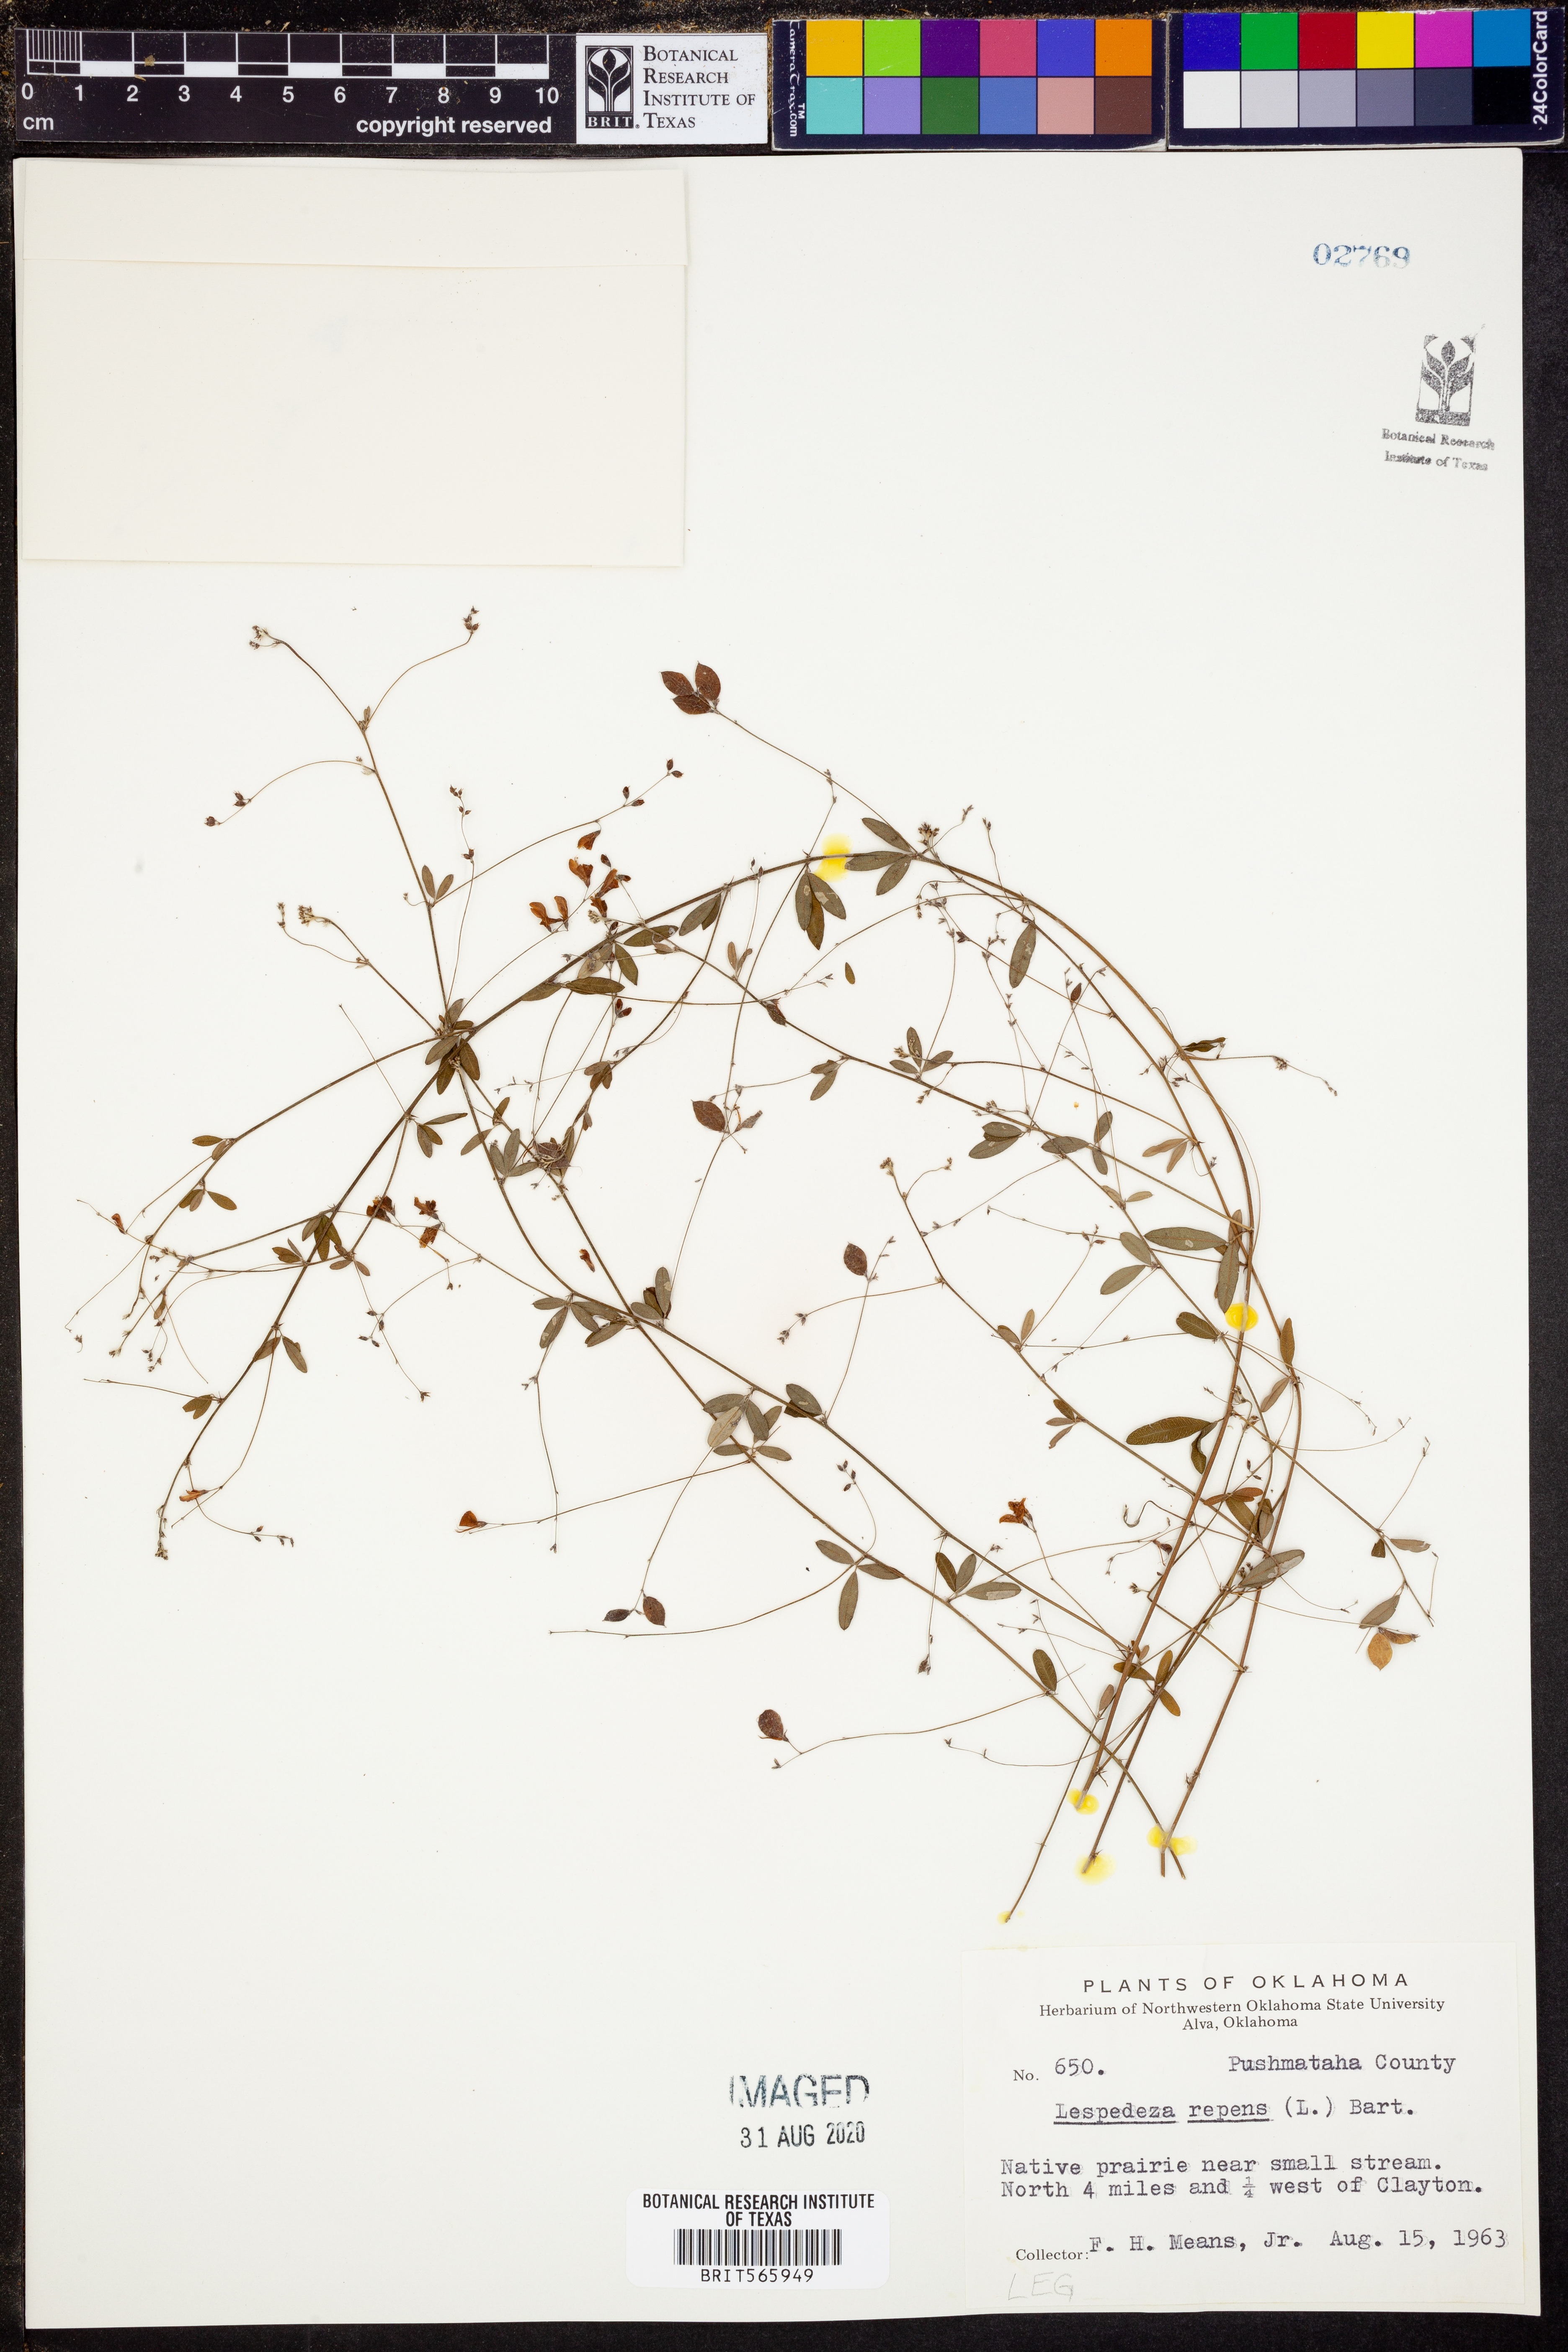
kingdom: Plantae
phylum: Tracheophyta
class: Magnoliopsida
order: Fabales
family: Fabaceae
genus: Lespedeza
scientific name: Lespedeza repens
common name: Creeping bush-clover
